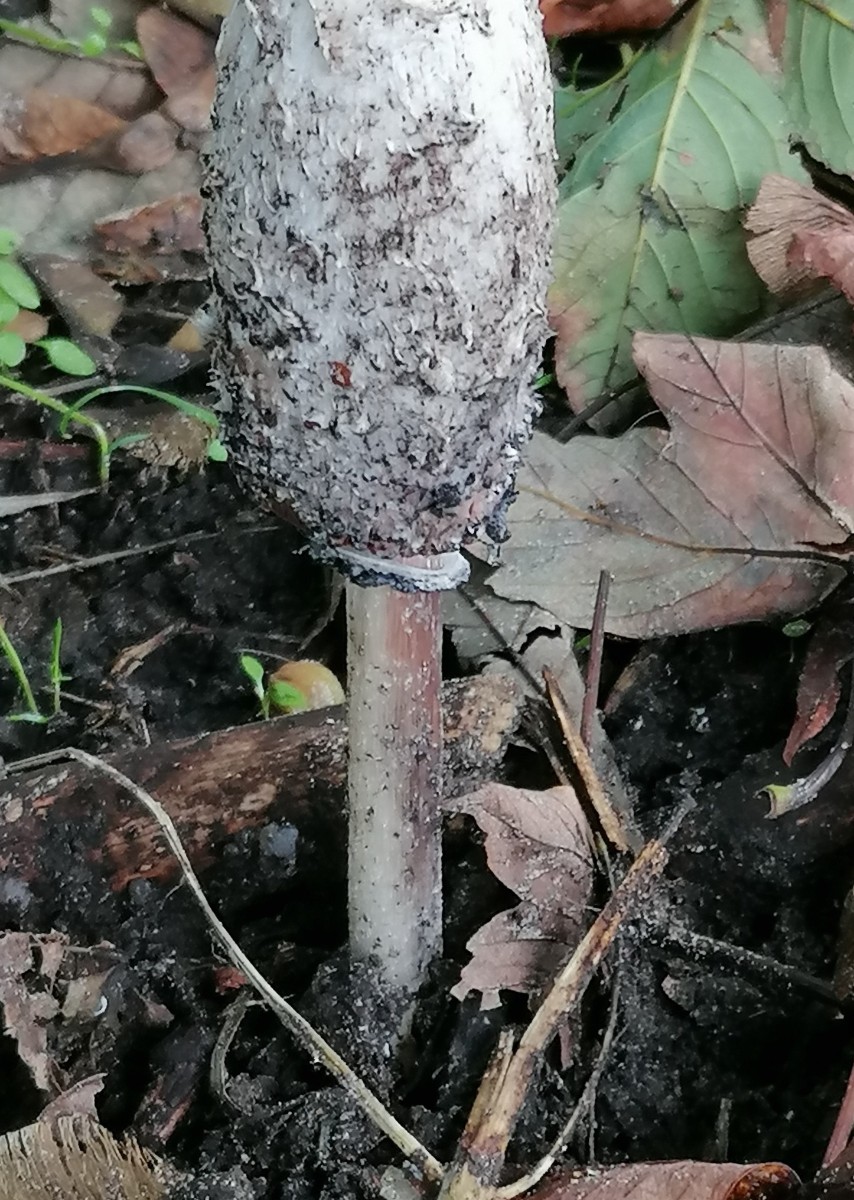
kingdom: Fungi
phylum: Basidiomycota
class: Agaricomycetes
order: Agaricales
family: Agaricaceae
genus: Coprinus
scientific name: Coprinus comatus
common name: stor parykhat
